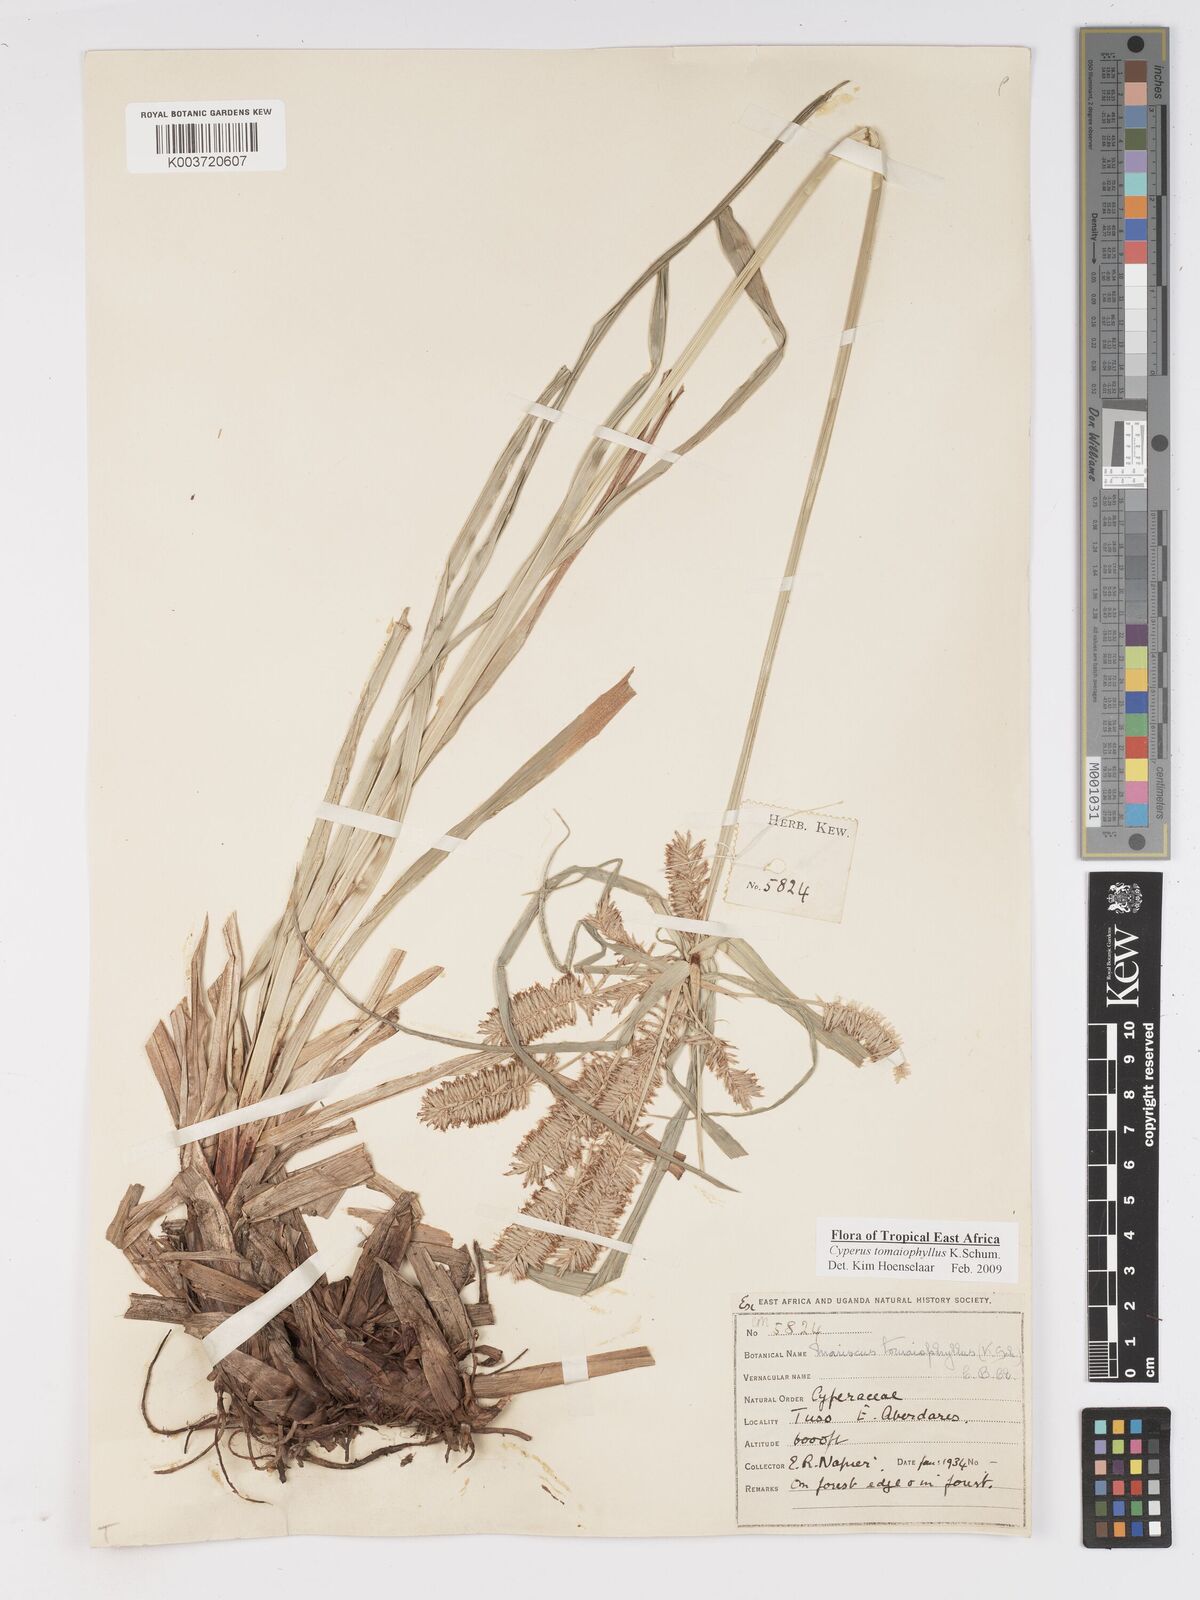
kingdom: Plantae
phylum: Tracheophyta
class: Liliopsida
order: Poales
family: Cyperaceae
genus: Cyperus
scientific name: Cyperus tomaiophyllus
